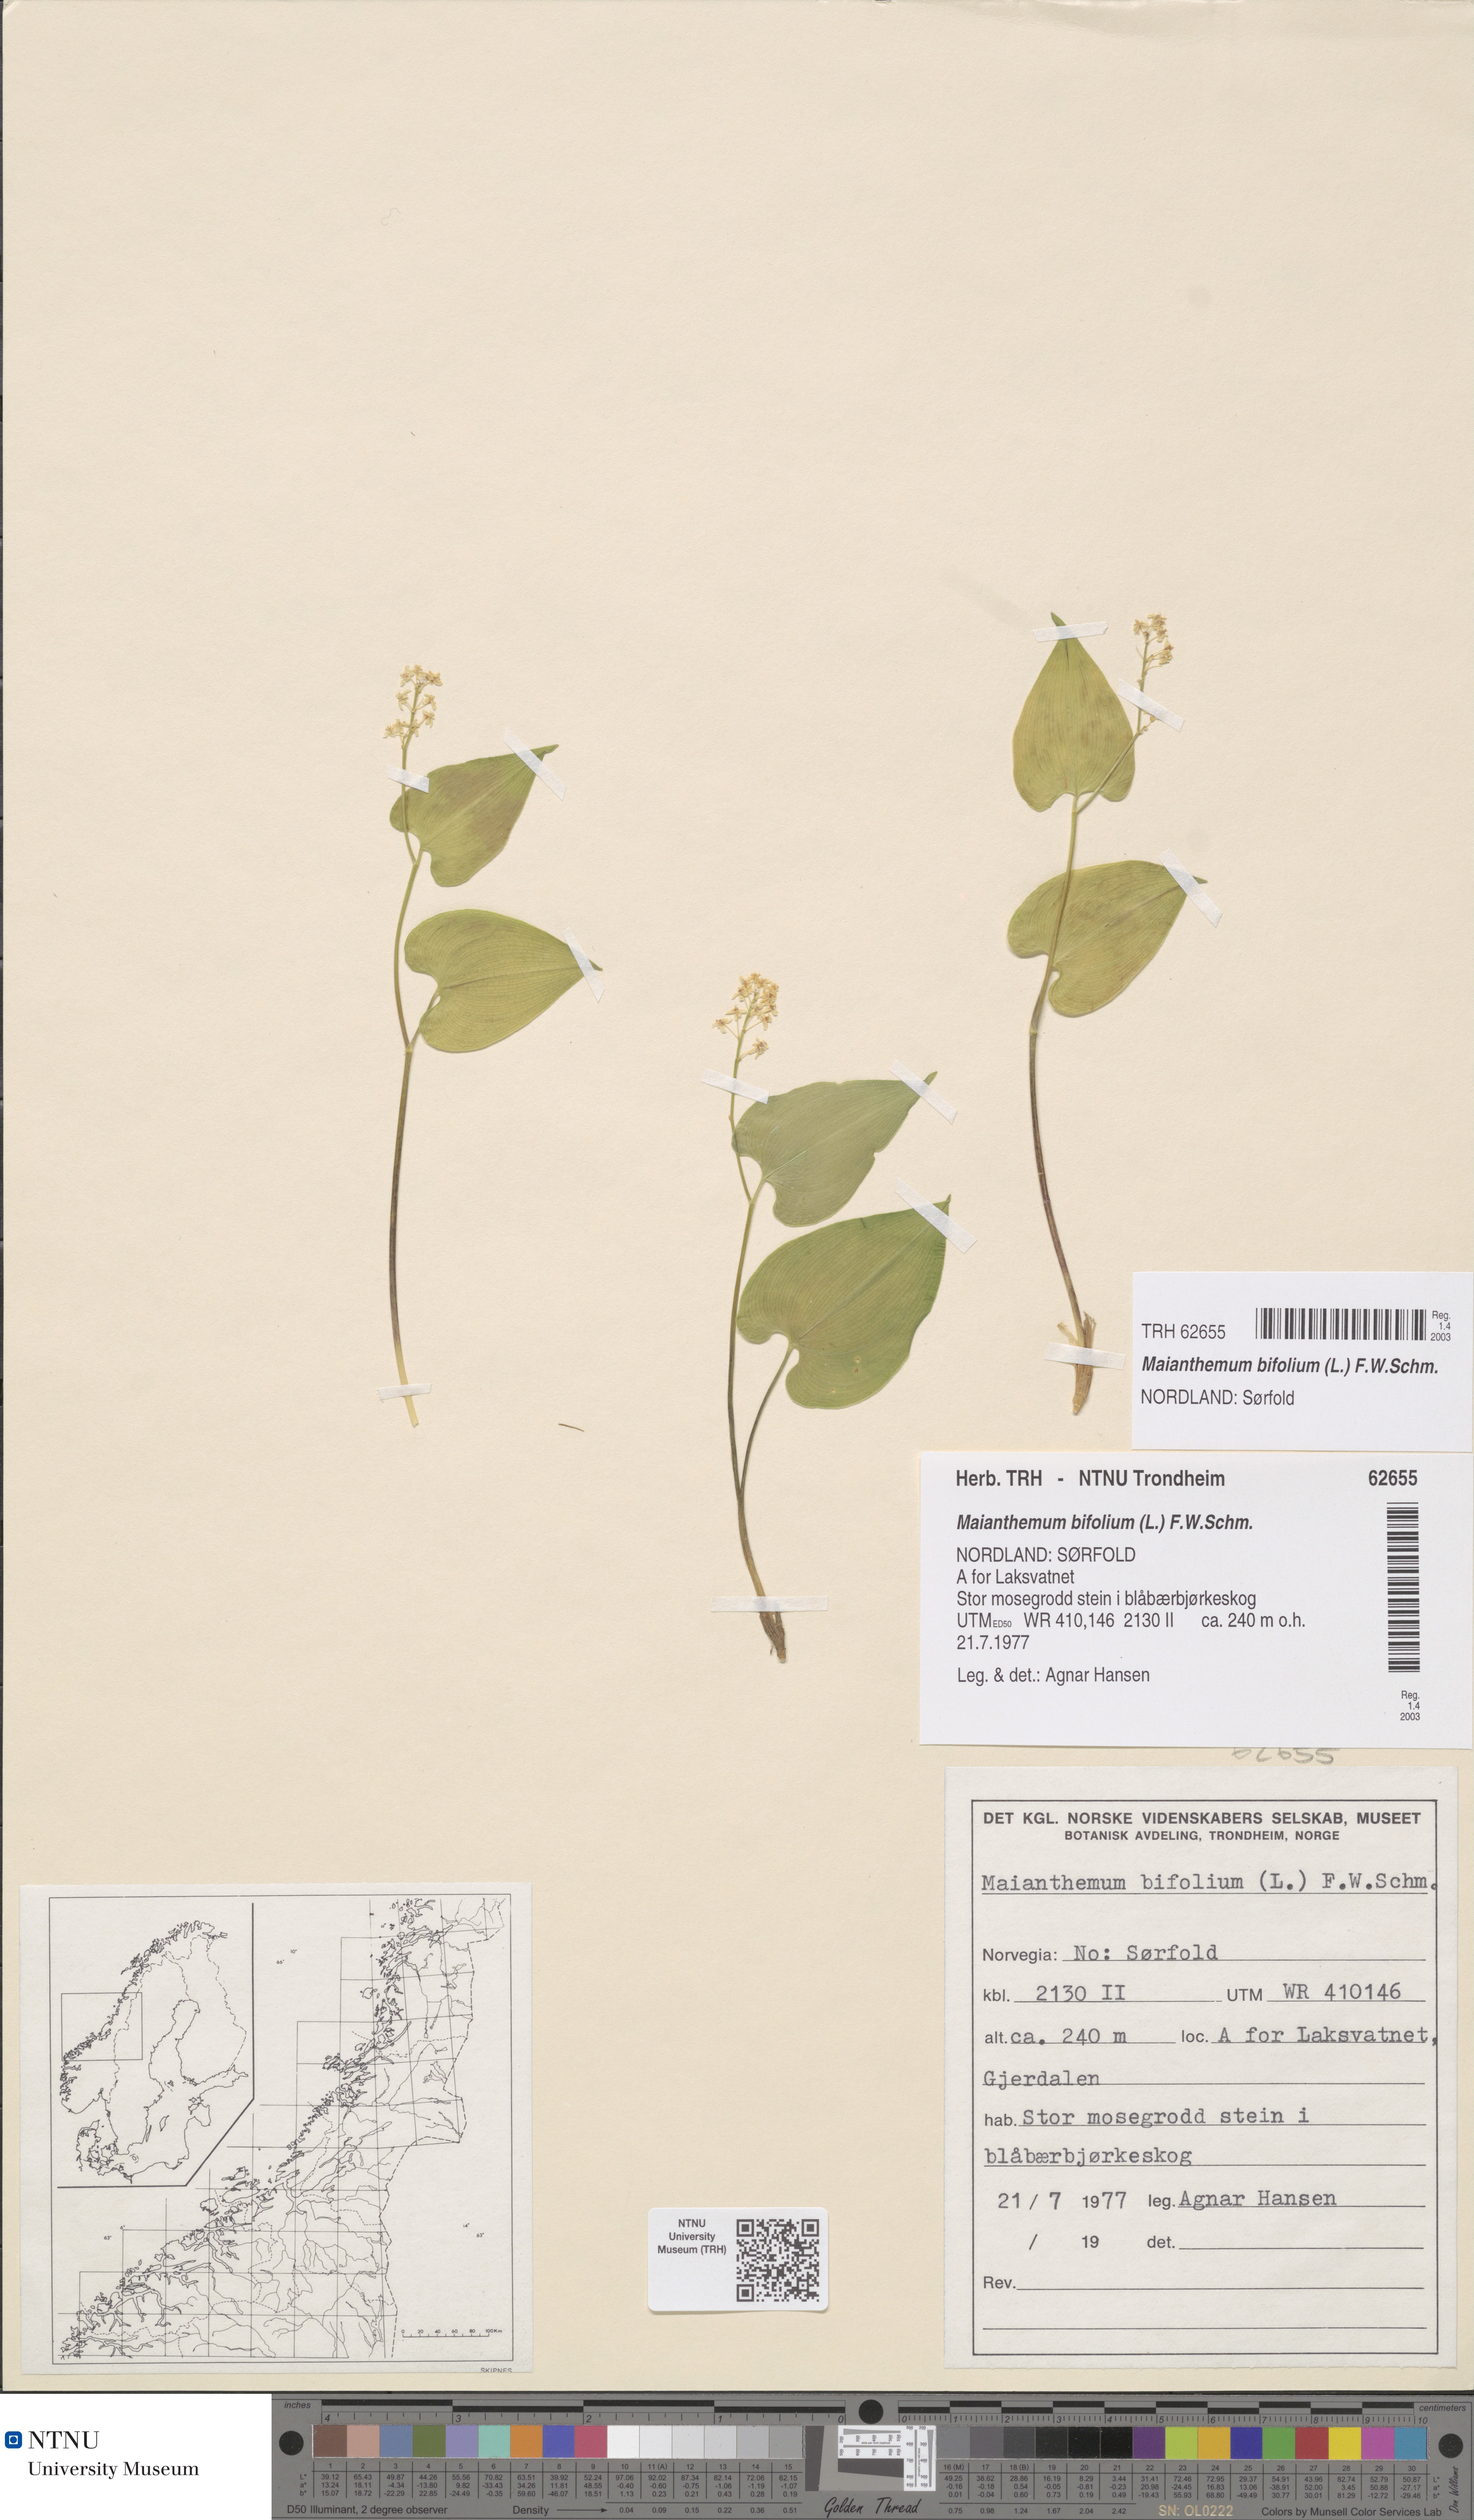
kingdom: Plantae
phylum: Tracheophyta
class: Liliopsida
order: Asparagales
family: Asparagaceae
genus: Maianthemum
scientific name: Maianthemum bifolium
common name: May lily
